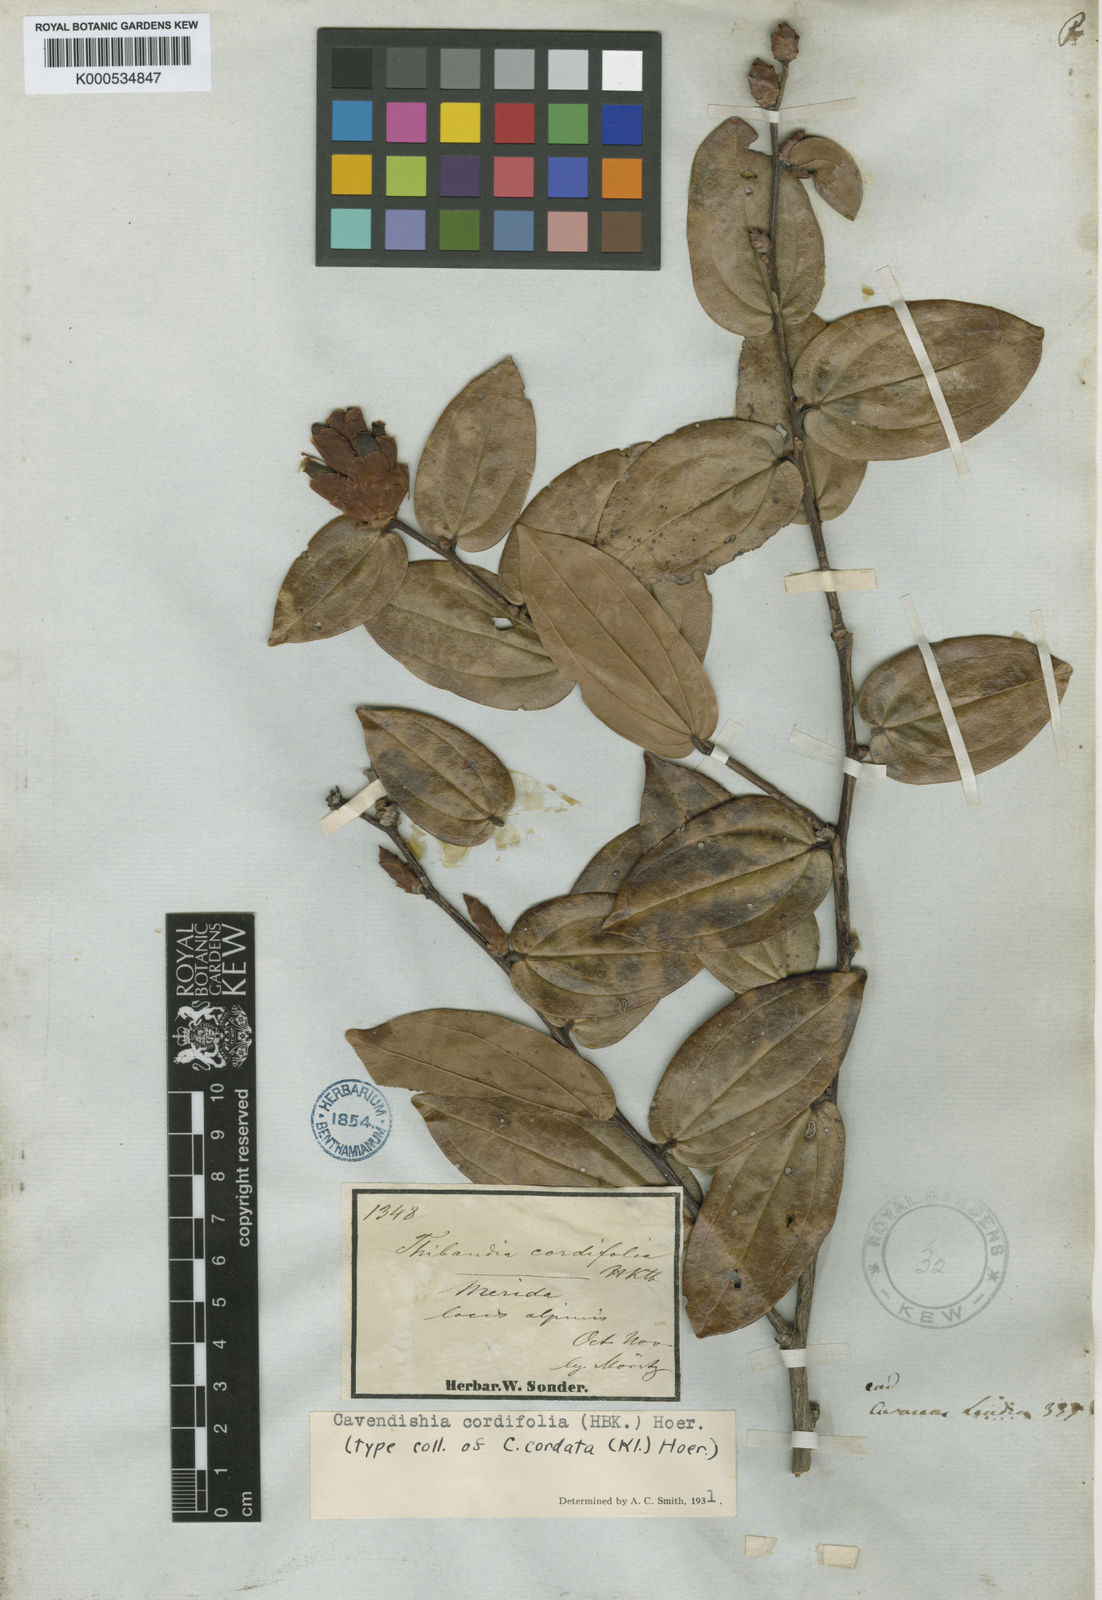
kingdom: Plantae
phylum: Tracheophyta
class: Magnoliopsida
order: Ericales
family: Ericaceae
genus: Cavendishia
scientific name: Cavendishia bracteata
